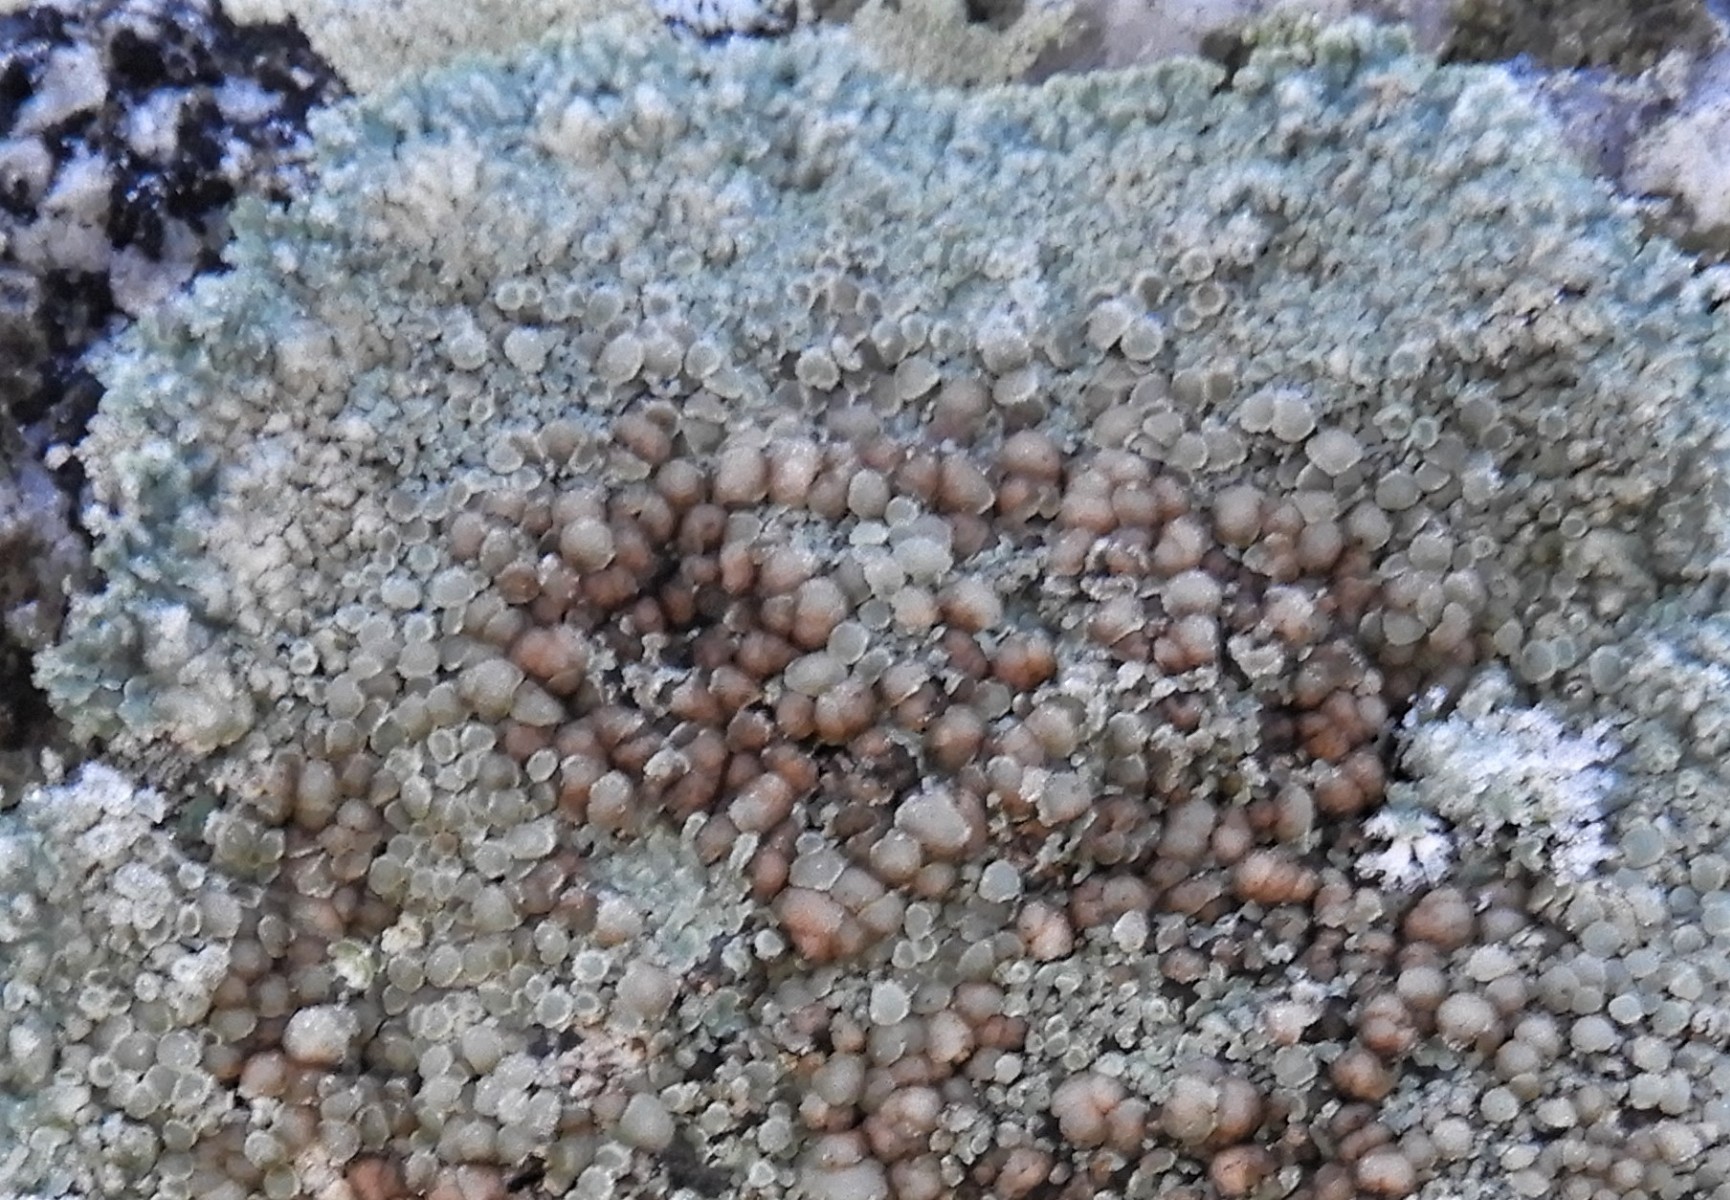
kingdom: Fungi
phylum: Ascomycota
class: Lecanoromycetes
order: Lecanorales
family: Lecanoraceae
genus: Protoparmeliopsis
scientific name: Protoparmeliopsis muralis
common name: randfliget kantskivelav
